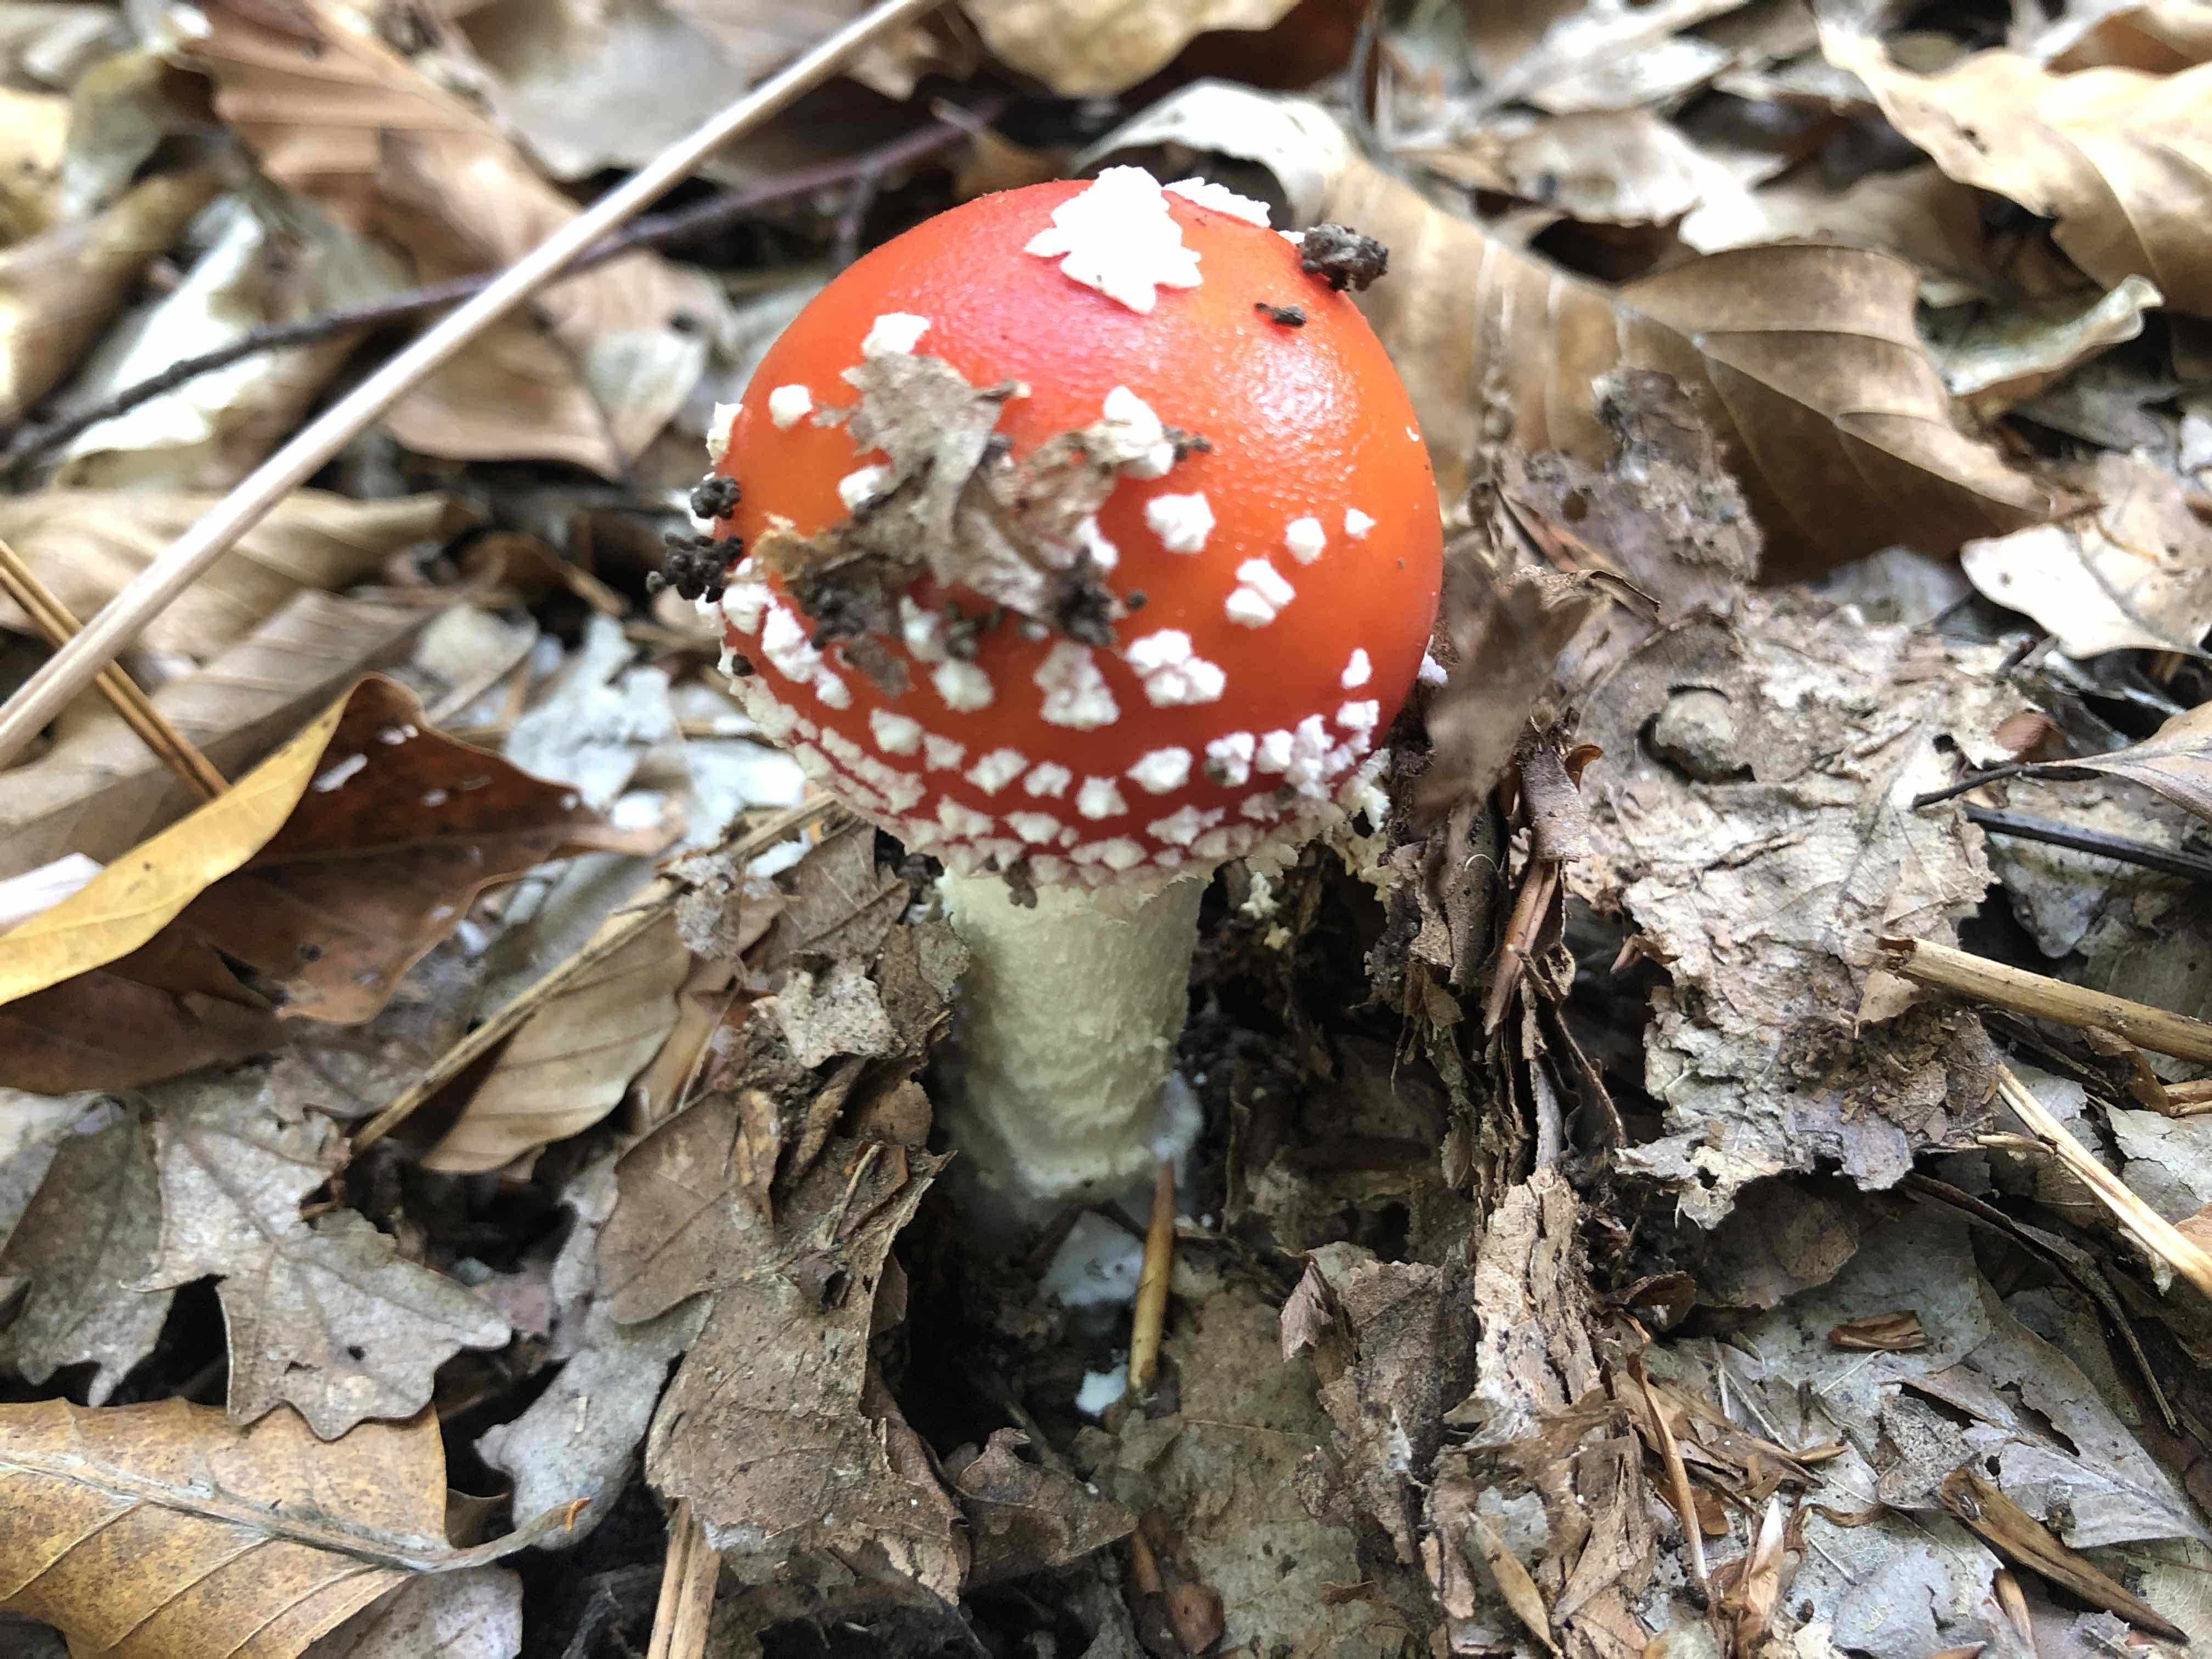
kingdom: Fungi
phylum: Basidiomycota
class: Agaricomycetes
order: Agaricales
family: Amanitaceae
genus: Amanita
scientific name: Amanita muscaria
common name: rød fluesvamp
